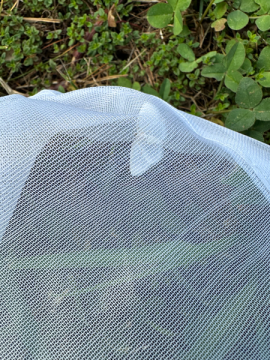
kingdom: Animalia
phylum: Arthropoda
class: Insecta
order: Lepidoptera
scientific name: Lepidoptera
